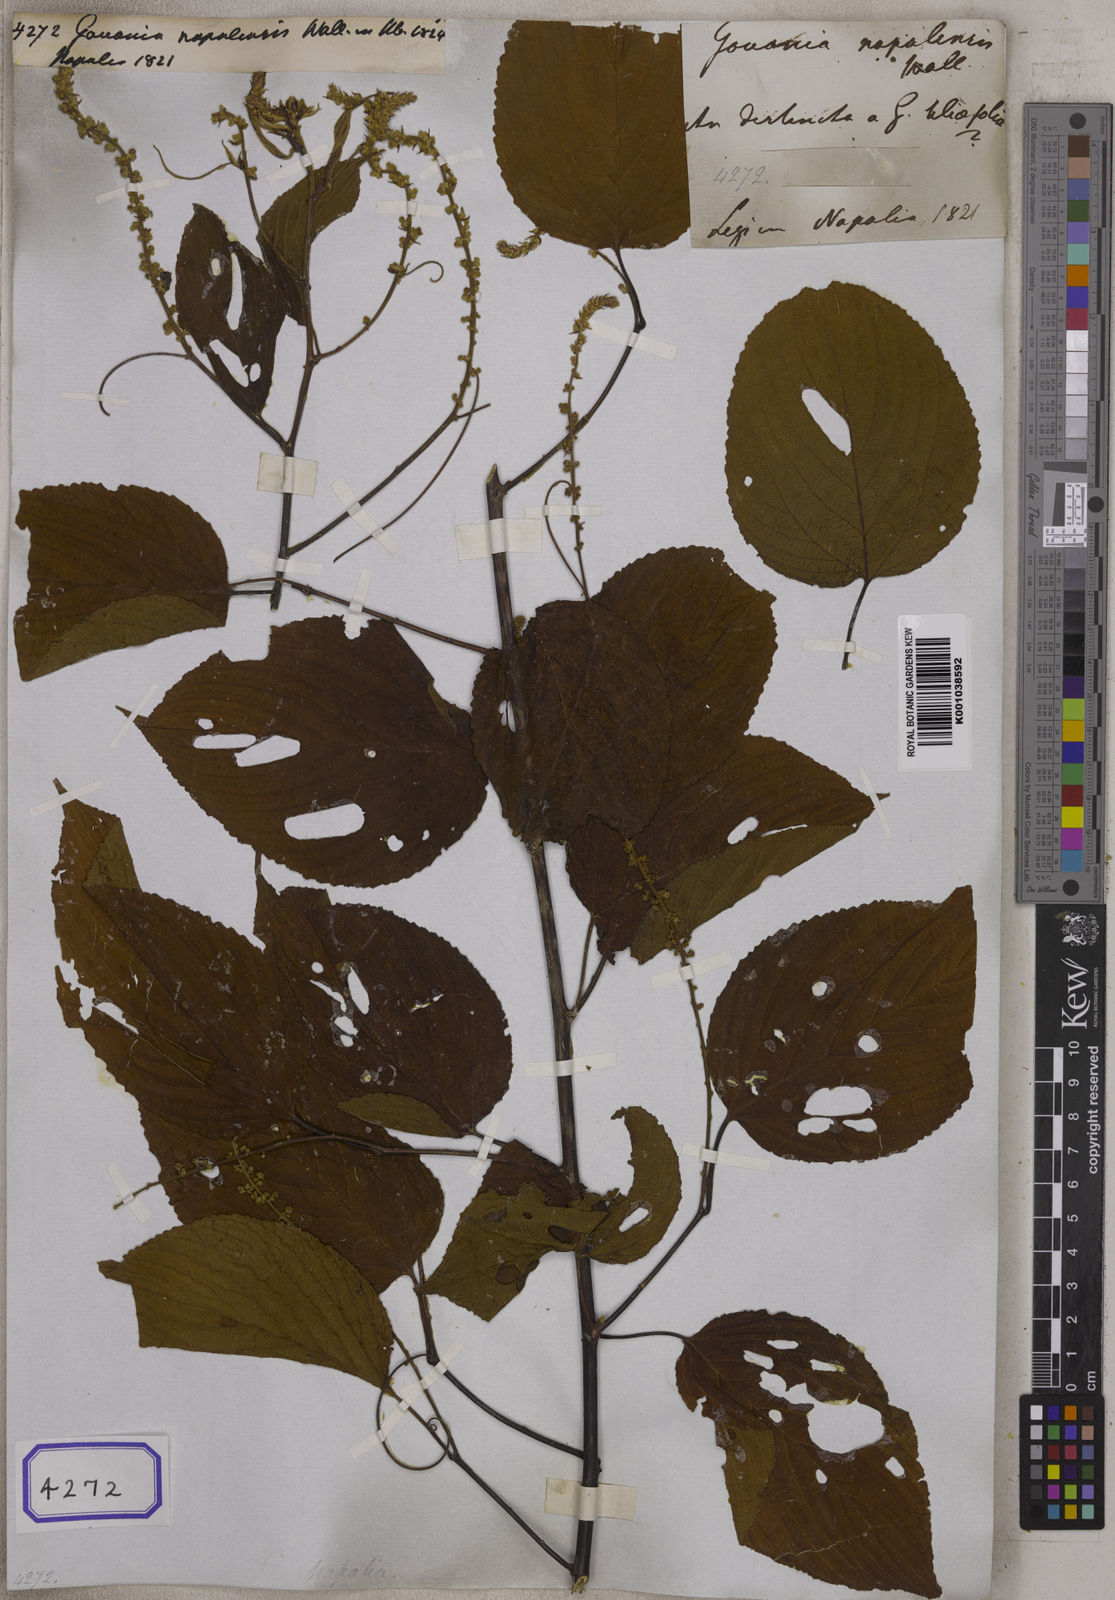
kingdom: Plantae
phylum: Tracheophyta
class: Magnoliopsida
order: Rosales
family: Rhamnaceae
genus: Gouania
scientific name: Gouania napalensis
